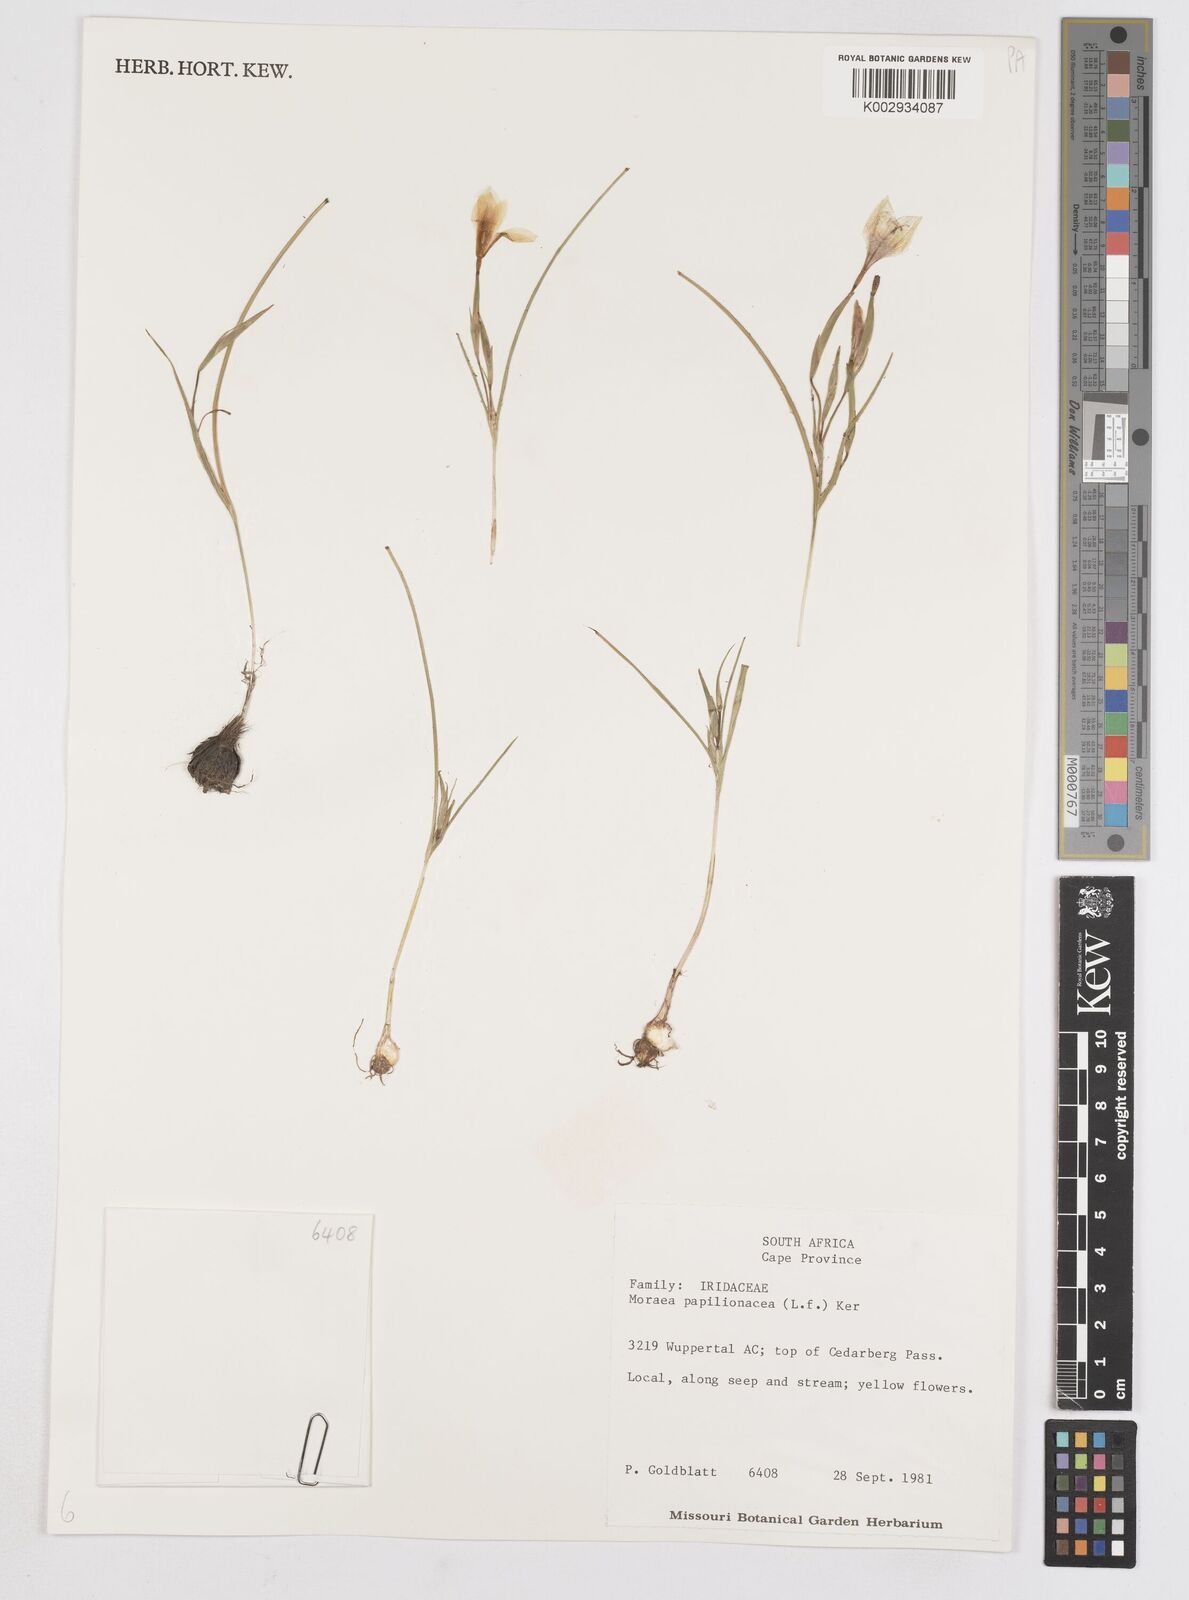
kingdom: Plantae
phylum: Tracheophyta
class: Liliopsida
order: Asparagales
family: Iridaceae
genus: Moraea
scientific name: Moraea papilionacea
